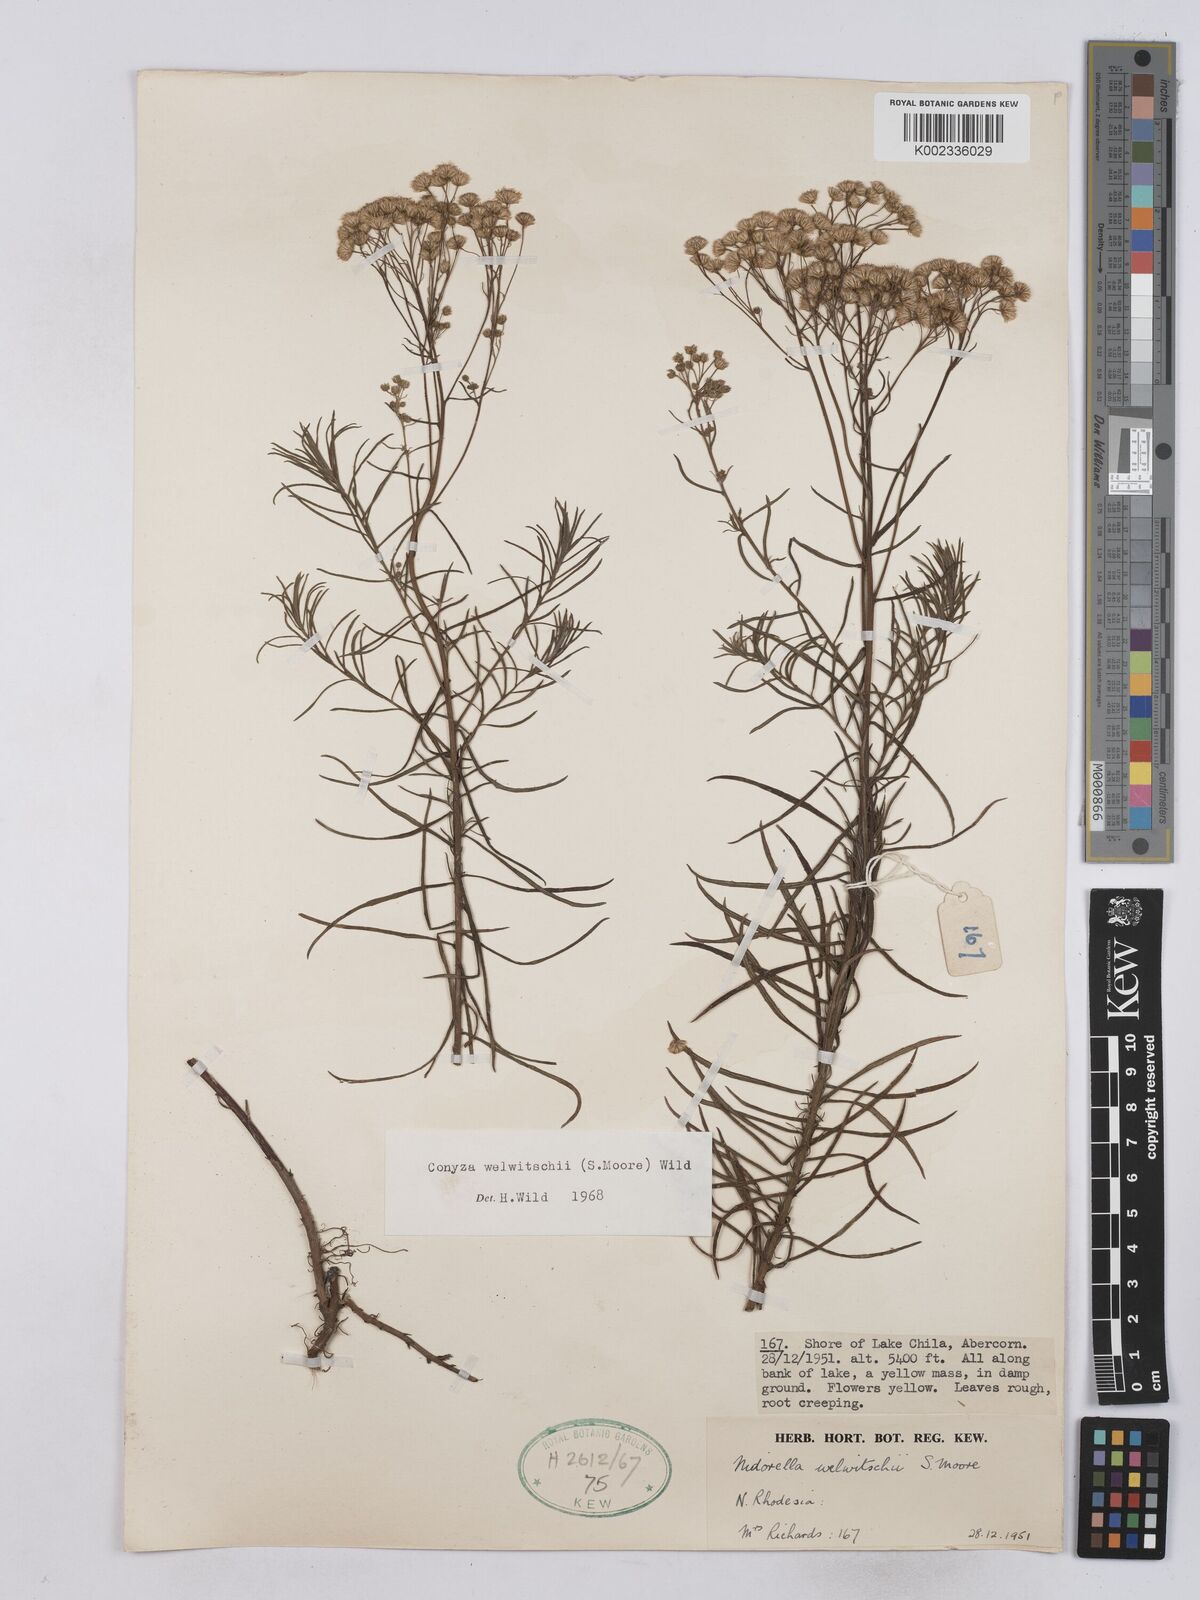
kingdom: Plantae
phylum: Tracheophyta
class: Magnoliopsida
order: Asterales
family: Asteraceae
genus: Nidorella
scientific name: Nidorella welwitschii
